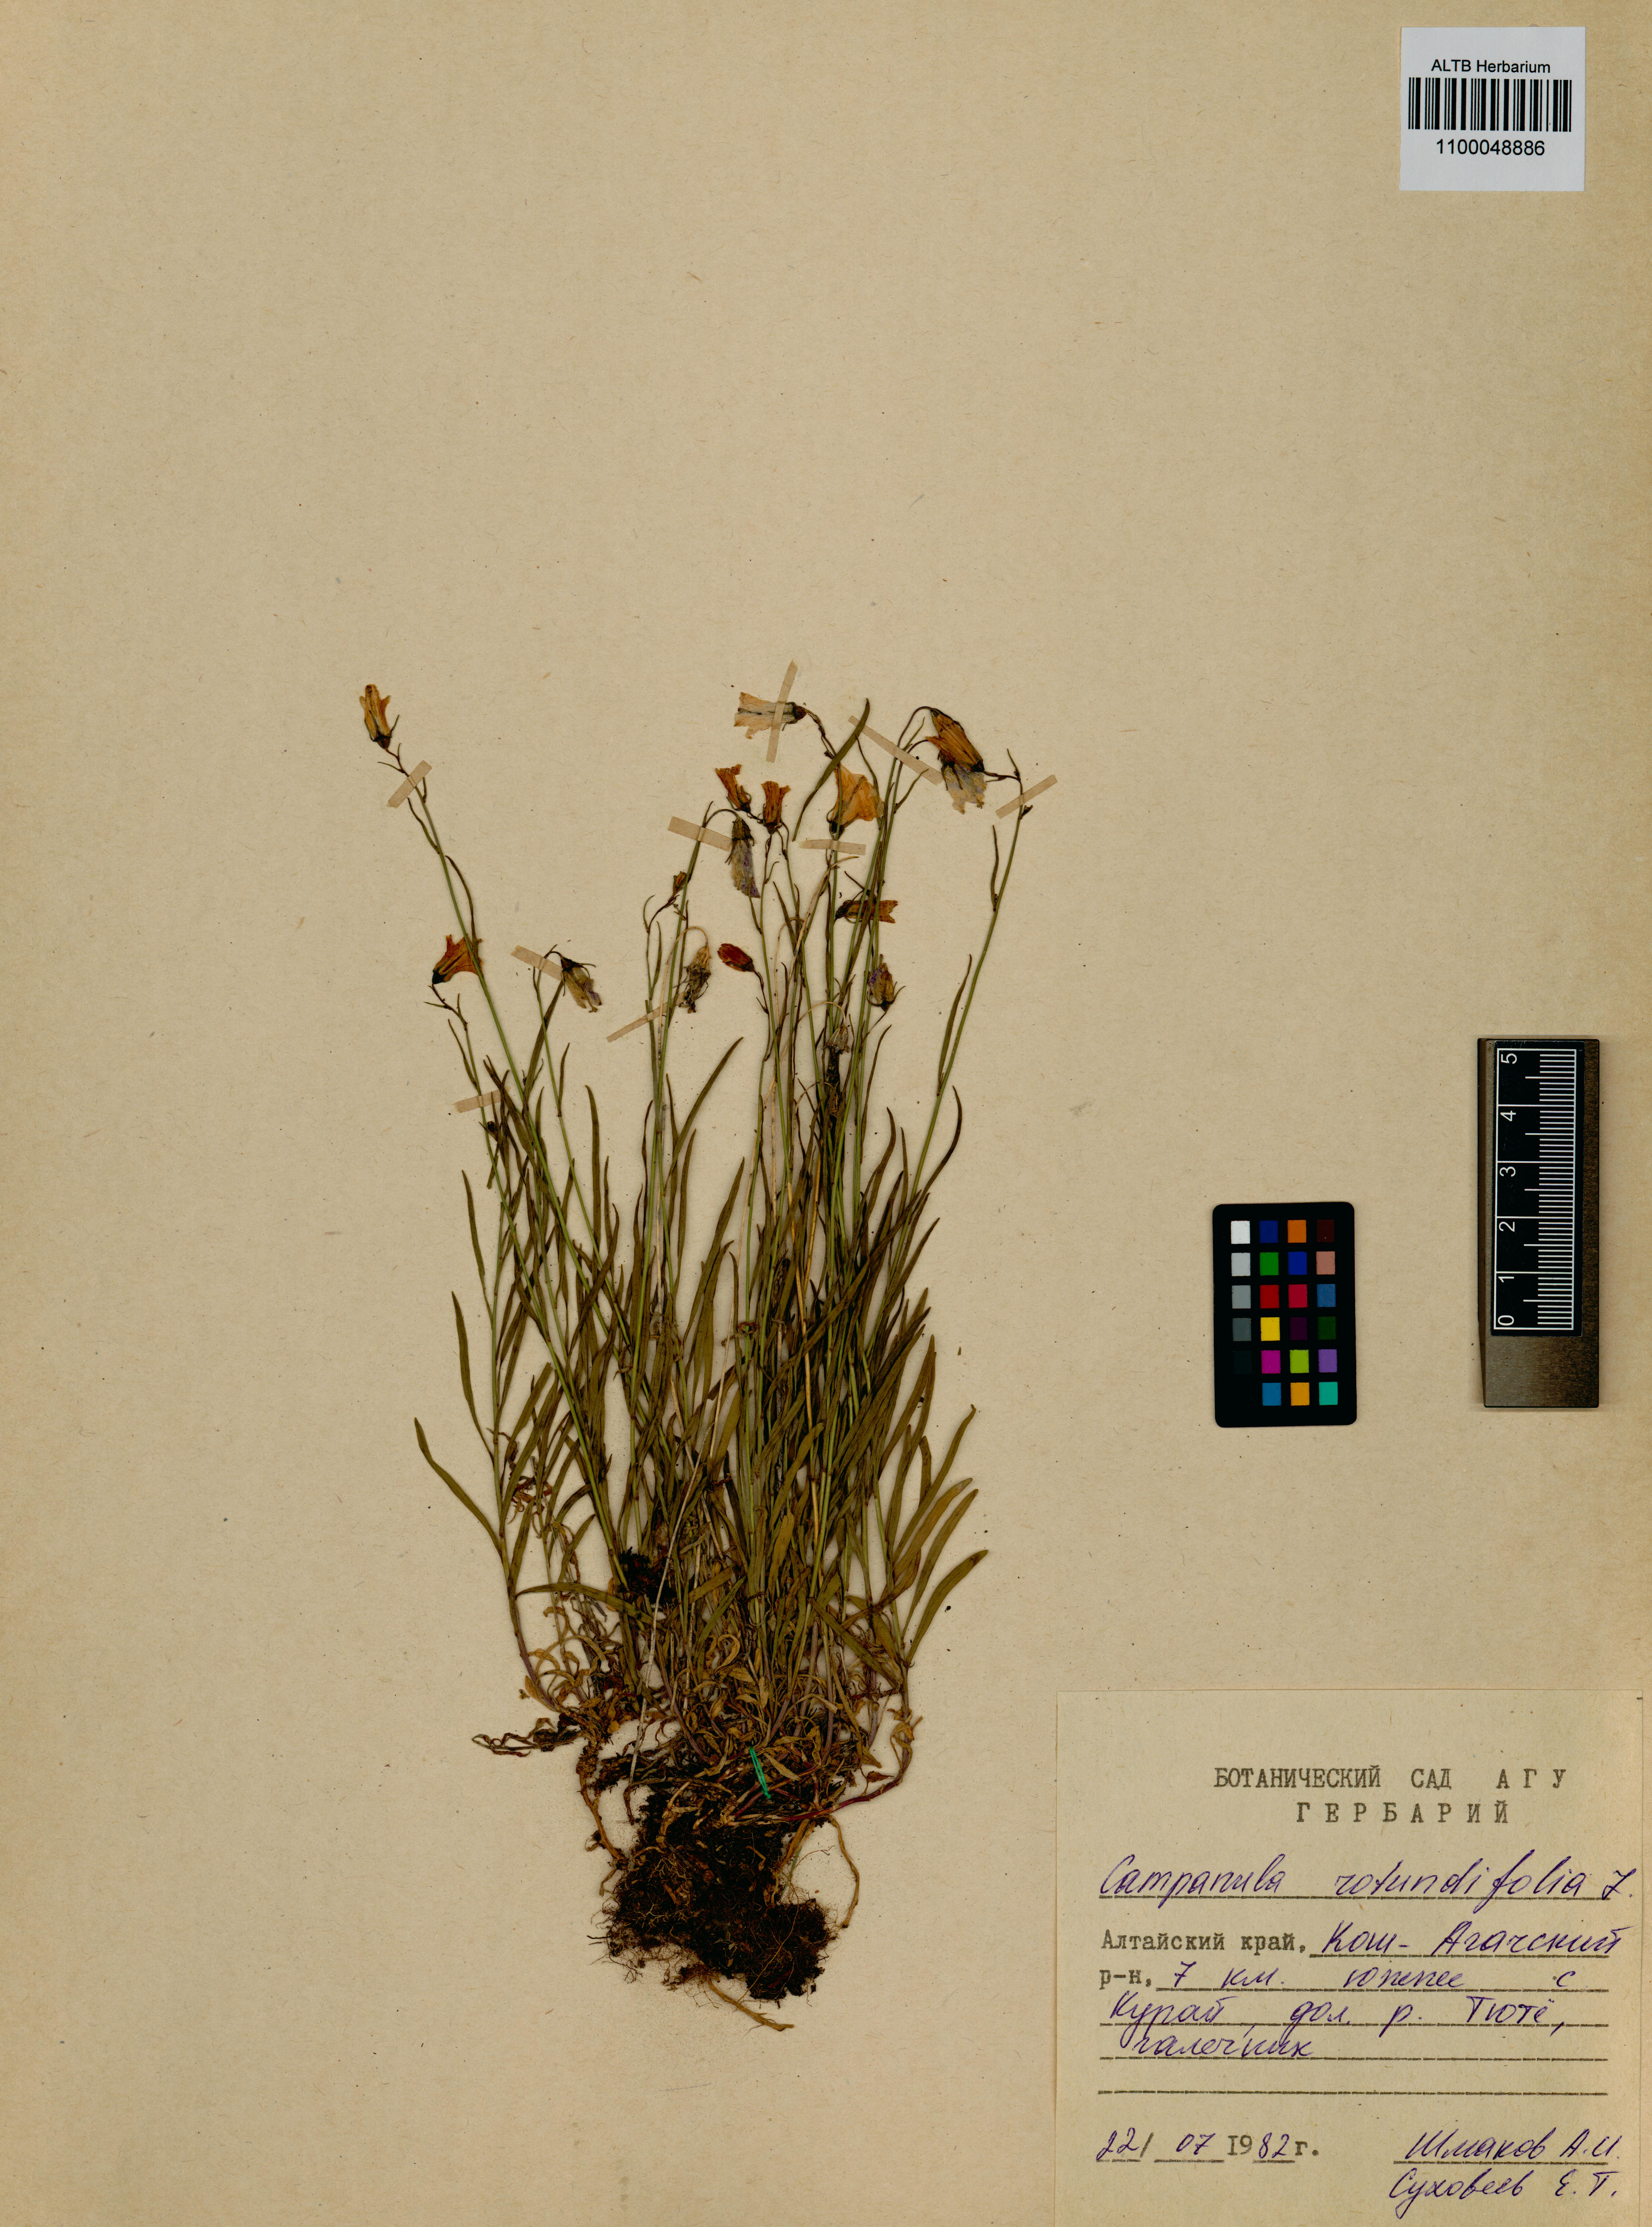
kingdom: Plantae
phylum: Tracheophyta
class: Magnoliopsida
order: Asterales
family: Campanulaceae
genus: Campanula
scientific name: Campanula rotundifolia
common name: Harebell
